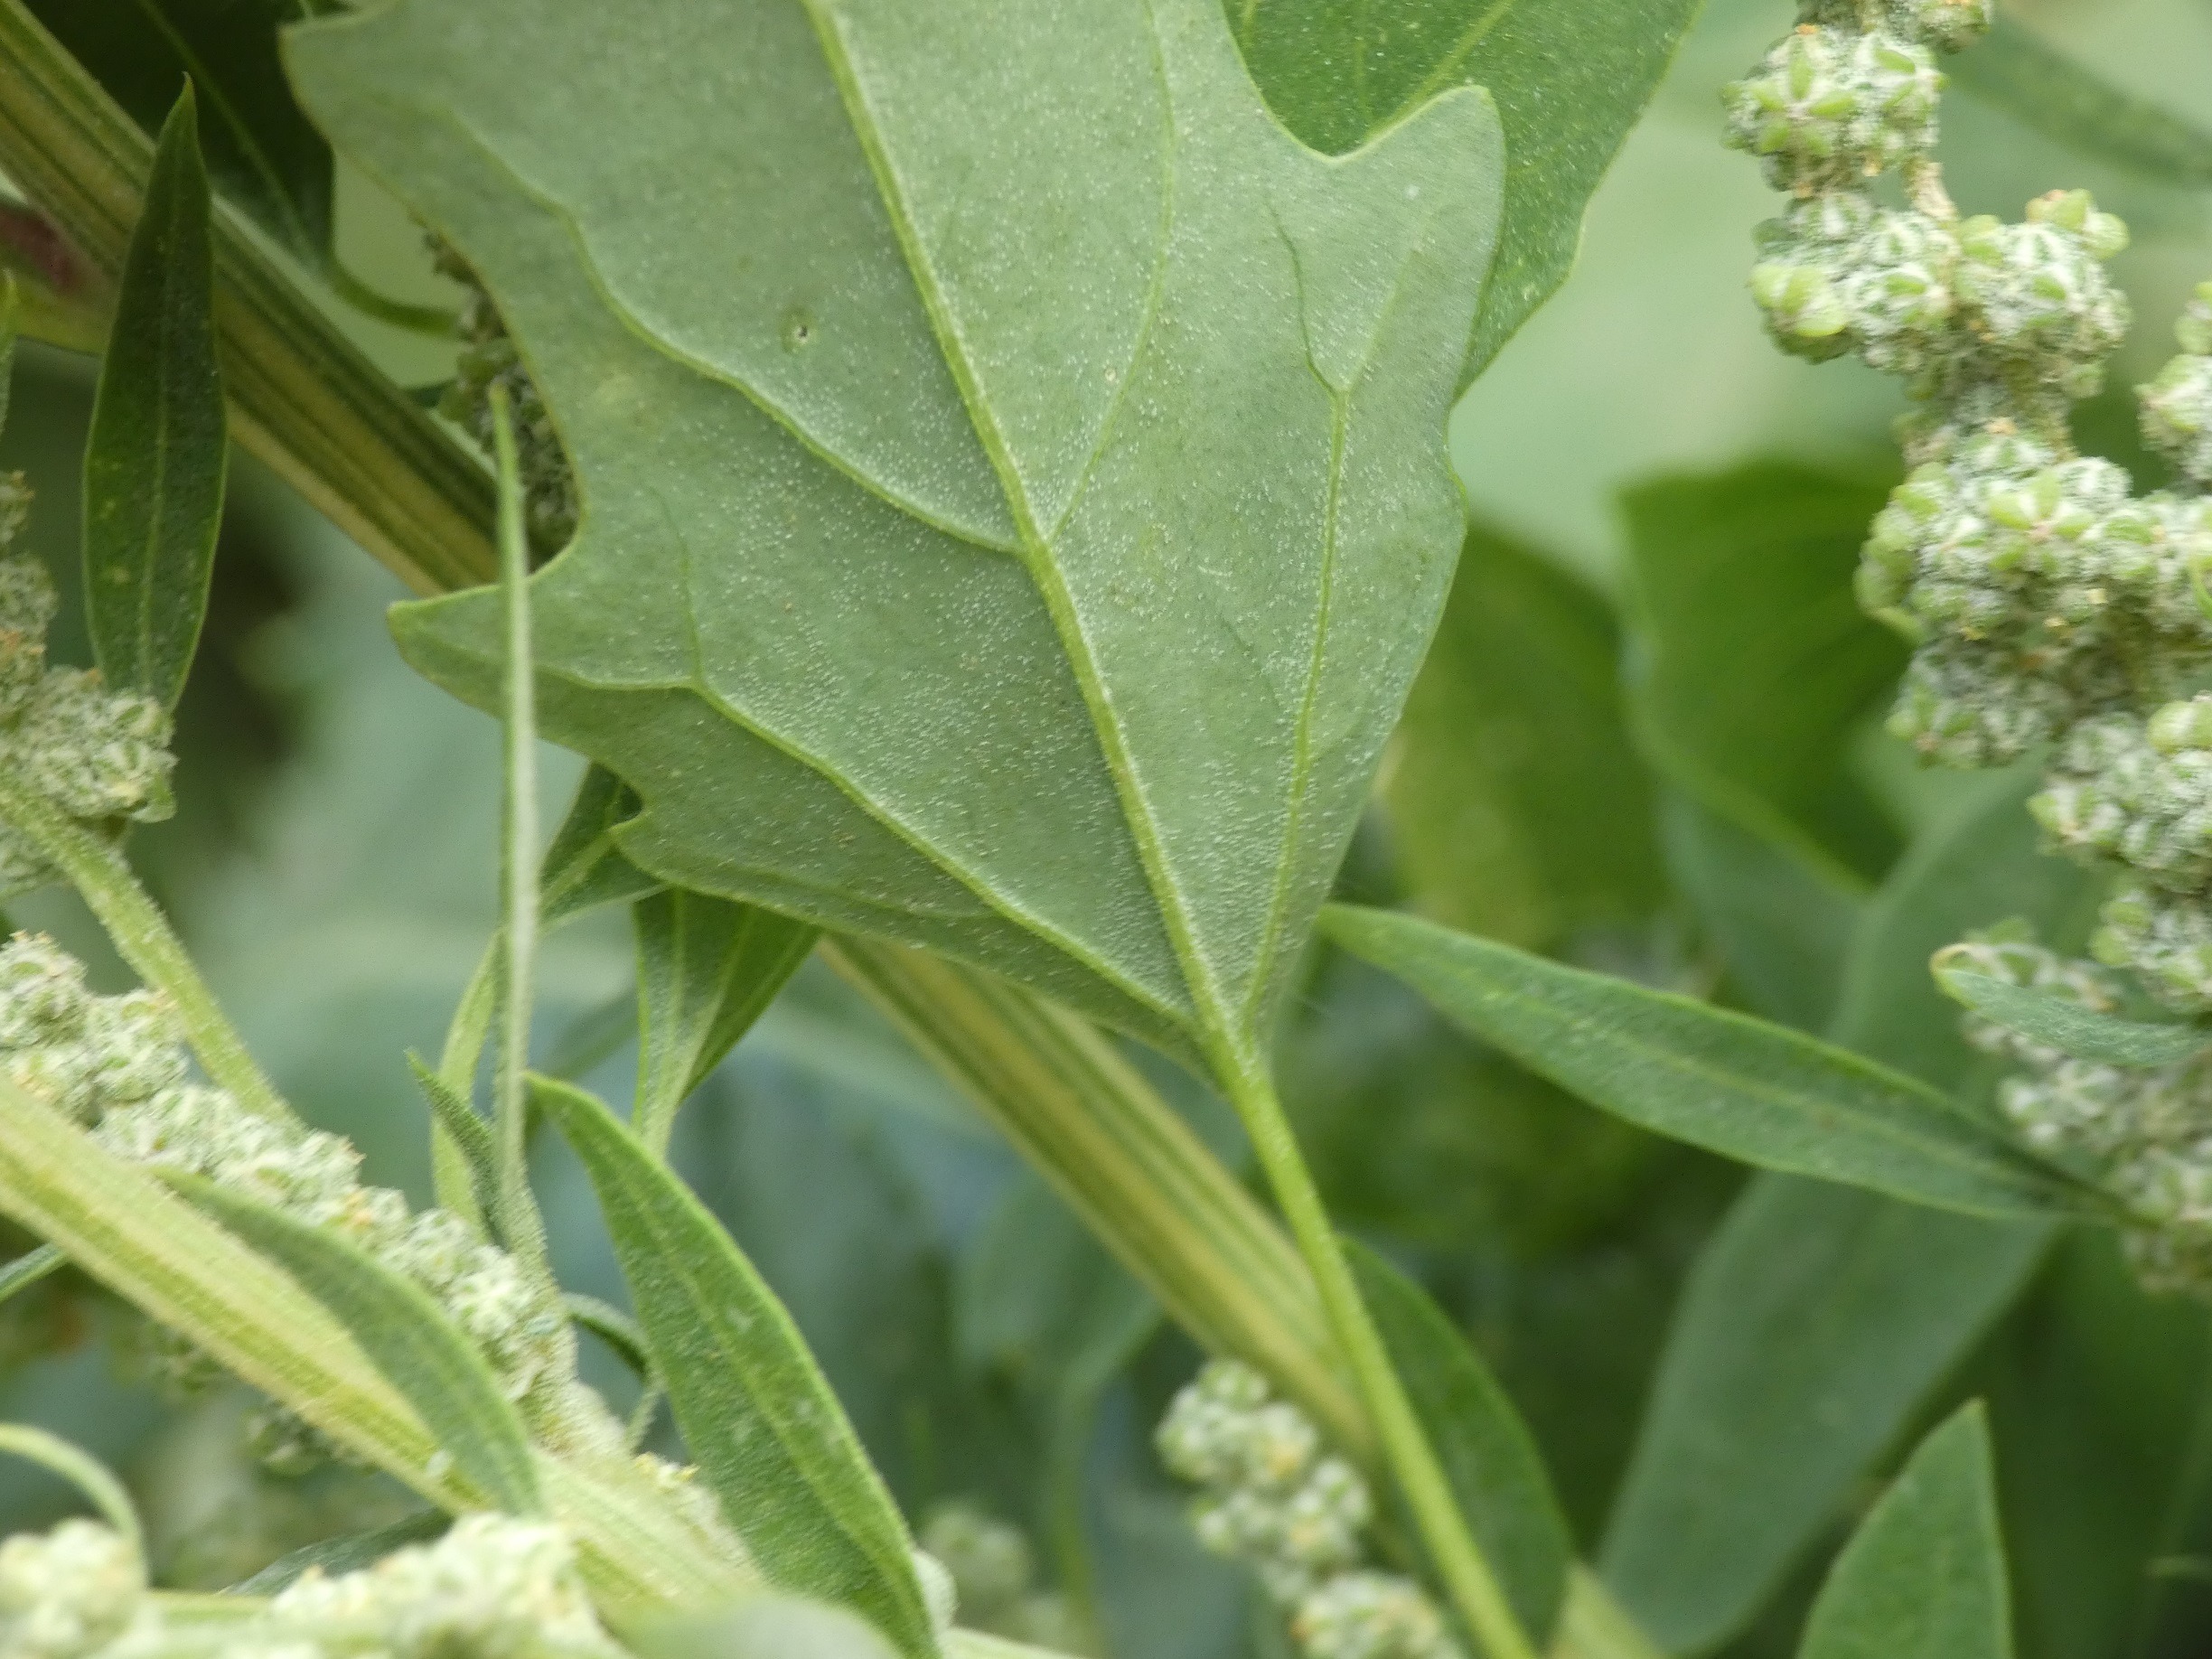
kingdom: Plantae
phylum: Tracheophyta
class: Magnoliopsida
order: Caryophyllales
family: Amaranthaceae
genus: Chenopodium
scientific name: Chenopodium album
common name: Hvidmelet gåsefod
